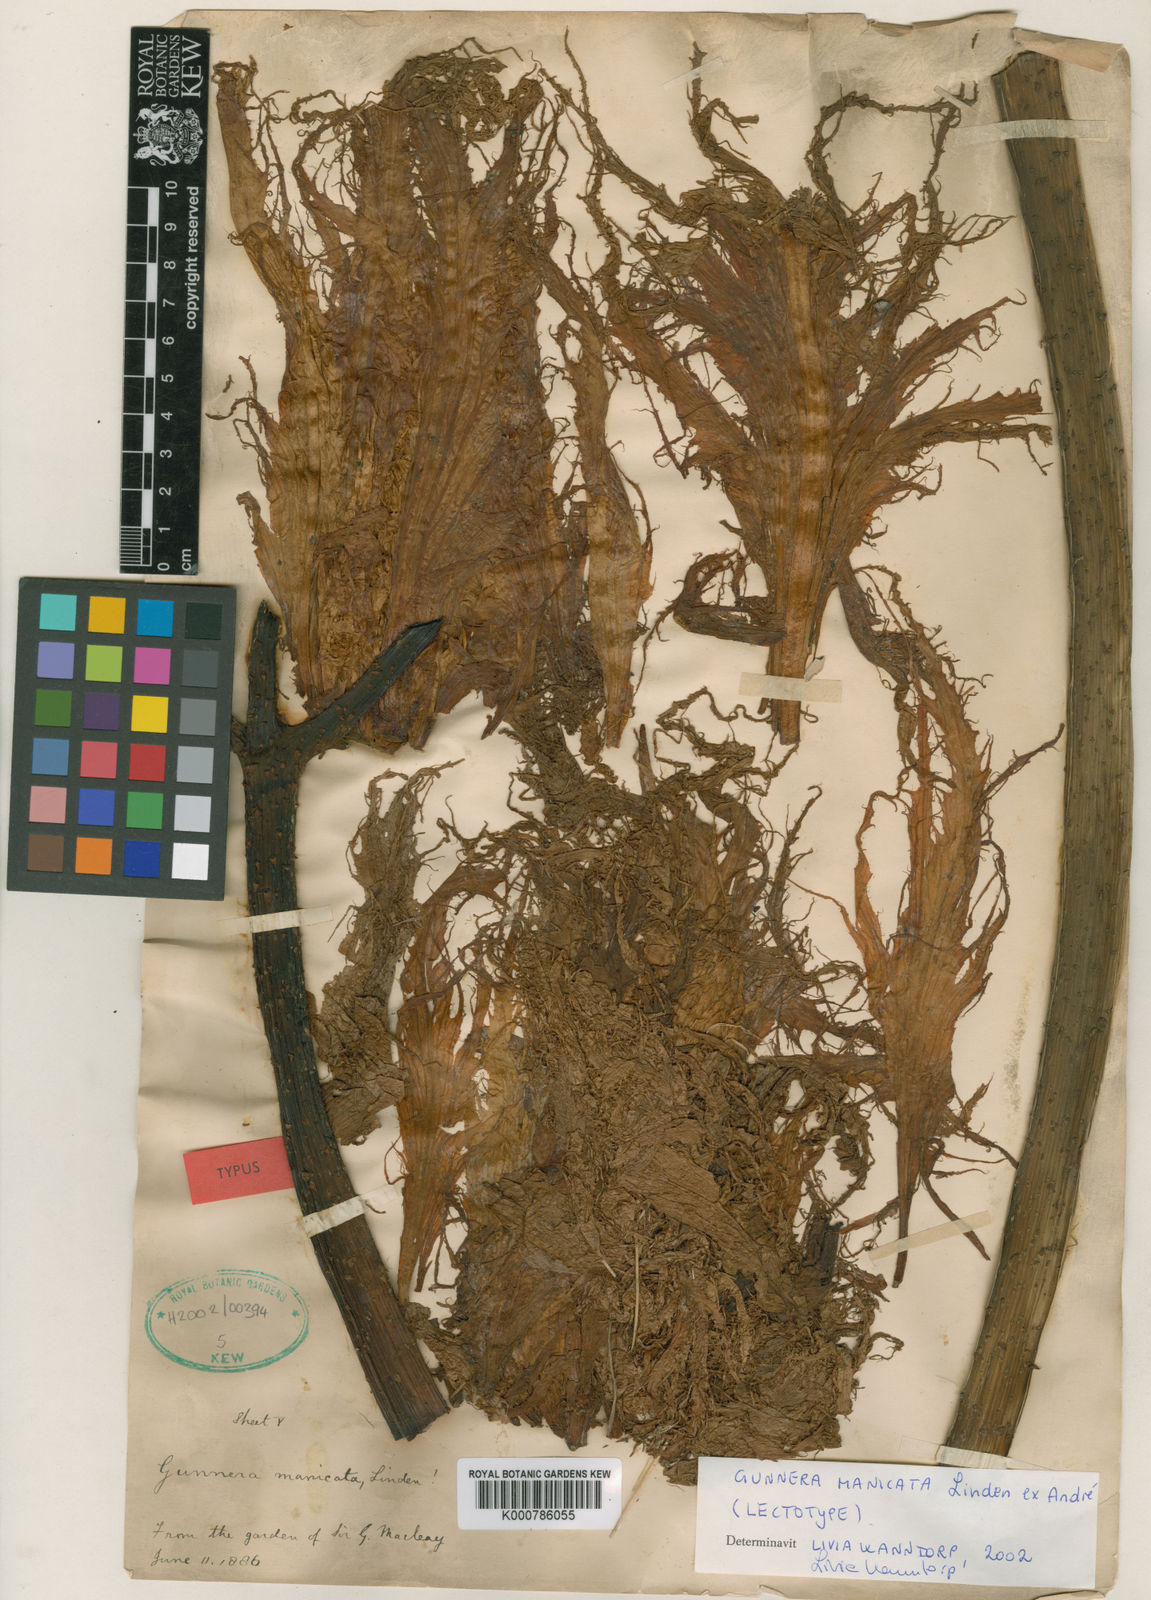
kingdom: Plantae
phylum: Tracheophyta
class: Magnoliopsida
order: Gunnerales
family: Gunneraceae
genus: Gunnera
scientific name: Gunnera manicata
